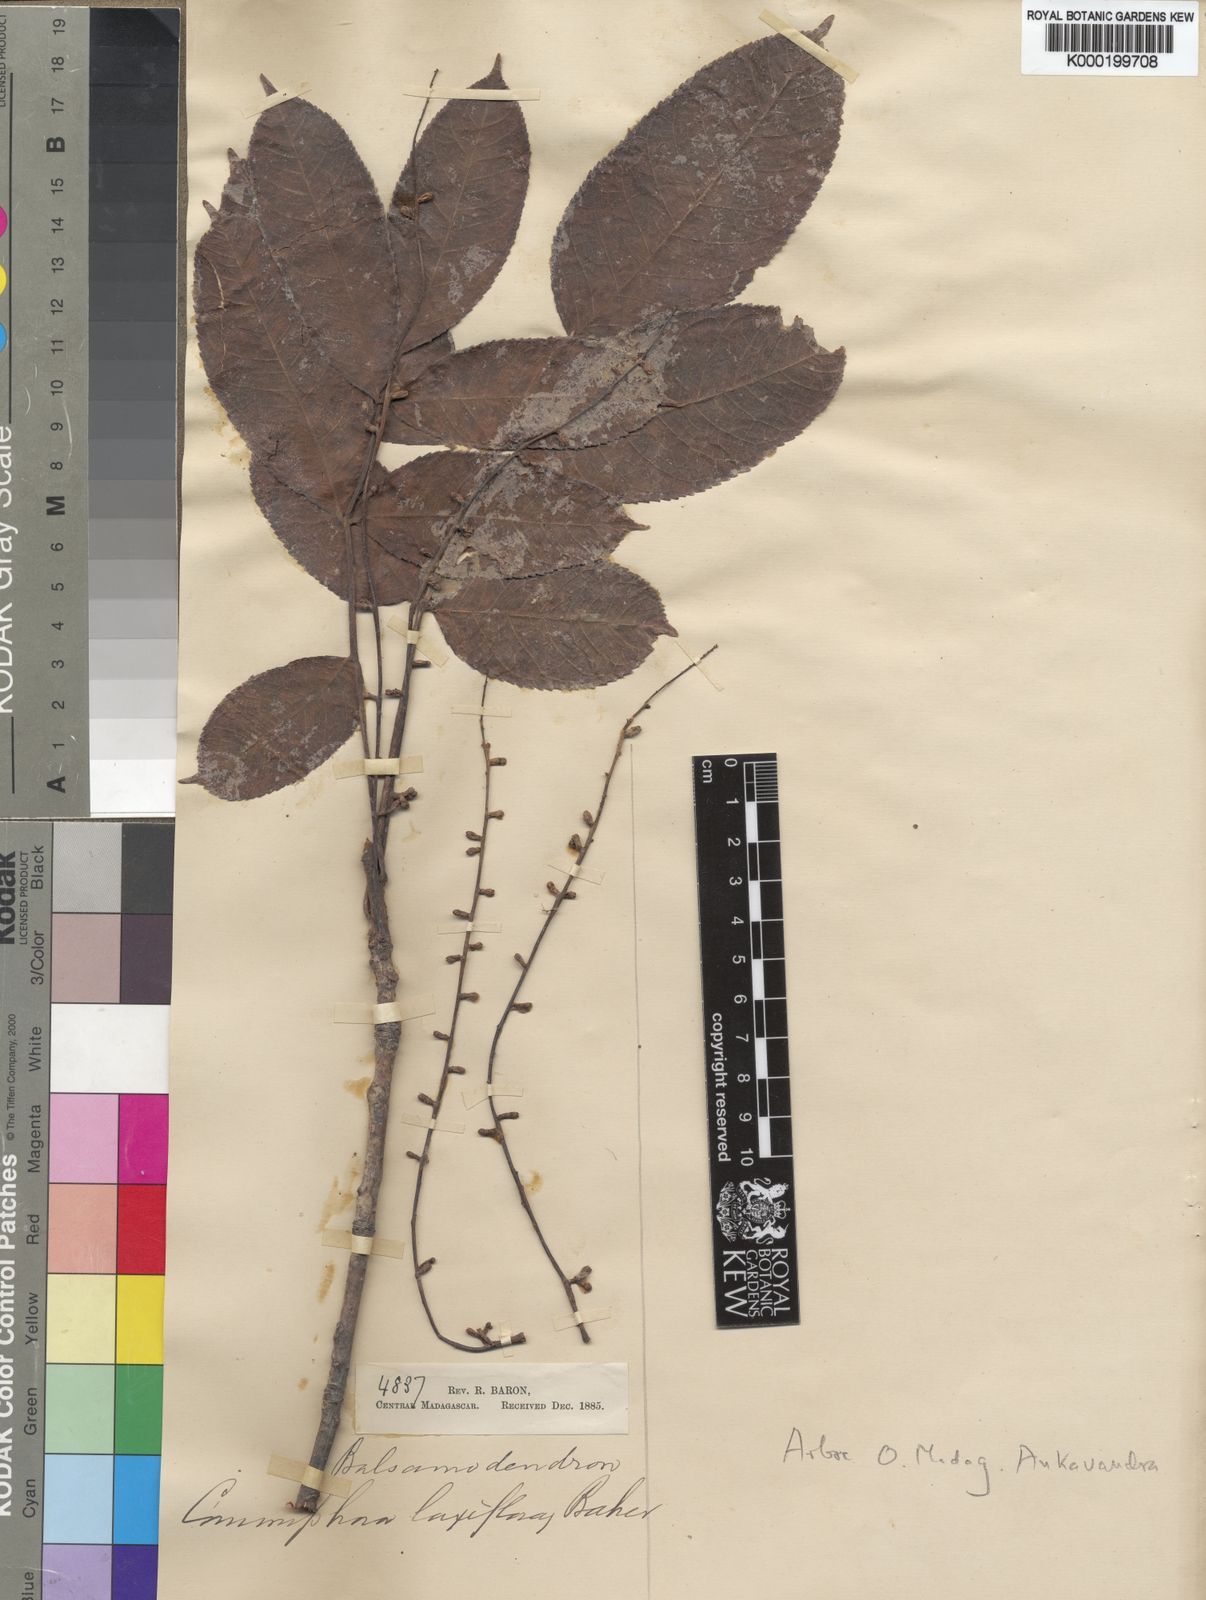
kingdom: Plantae
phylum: Tracheophyta
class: Magnoliopsida
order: Sapindales
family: Burseraceae
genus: Commiphora
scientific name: Commiphora grandifolia
